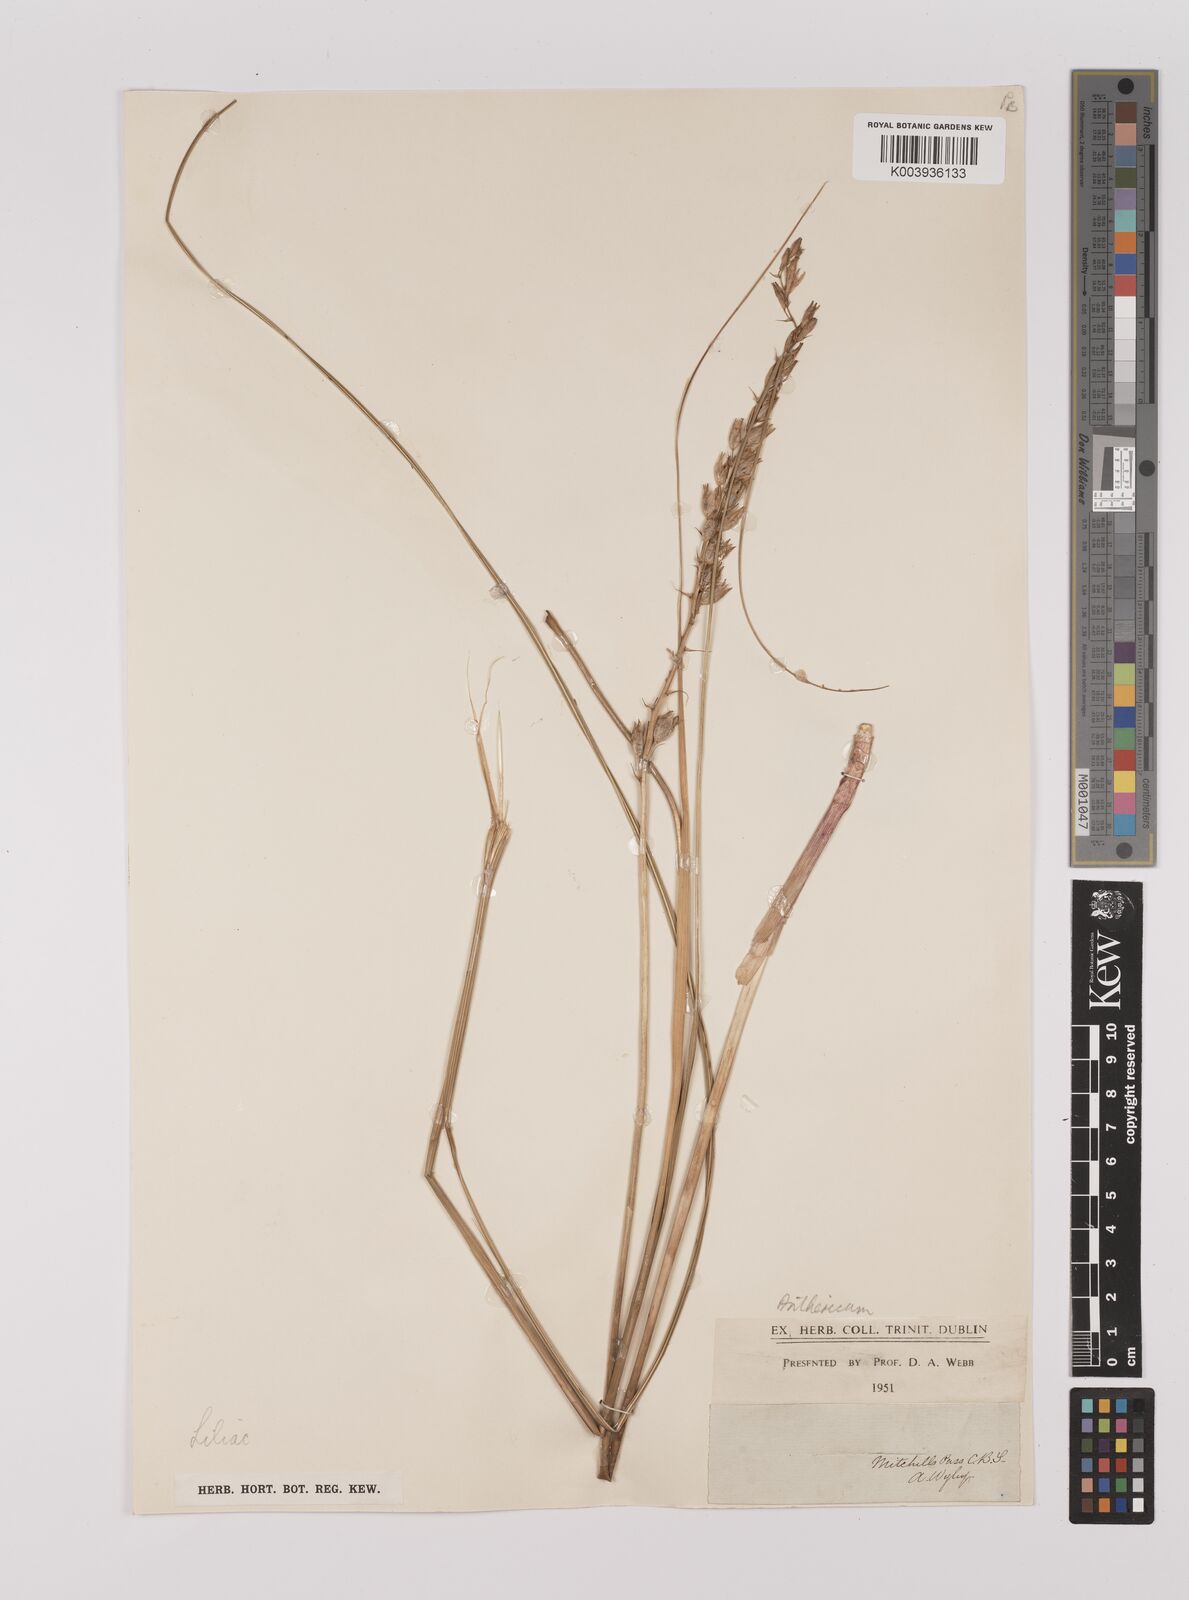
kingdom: Plantae
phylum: Tracheophyta
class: Liliopsida
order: Asparagales
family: Asparagaceae
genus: Chlorophytum
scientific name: Chlorophytum
